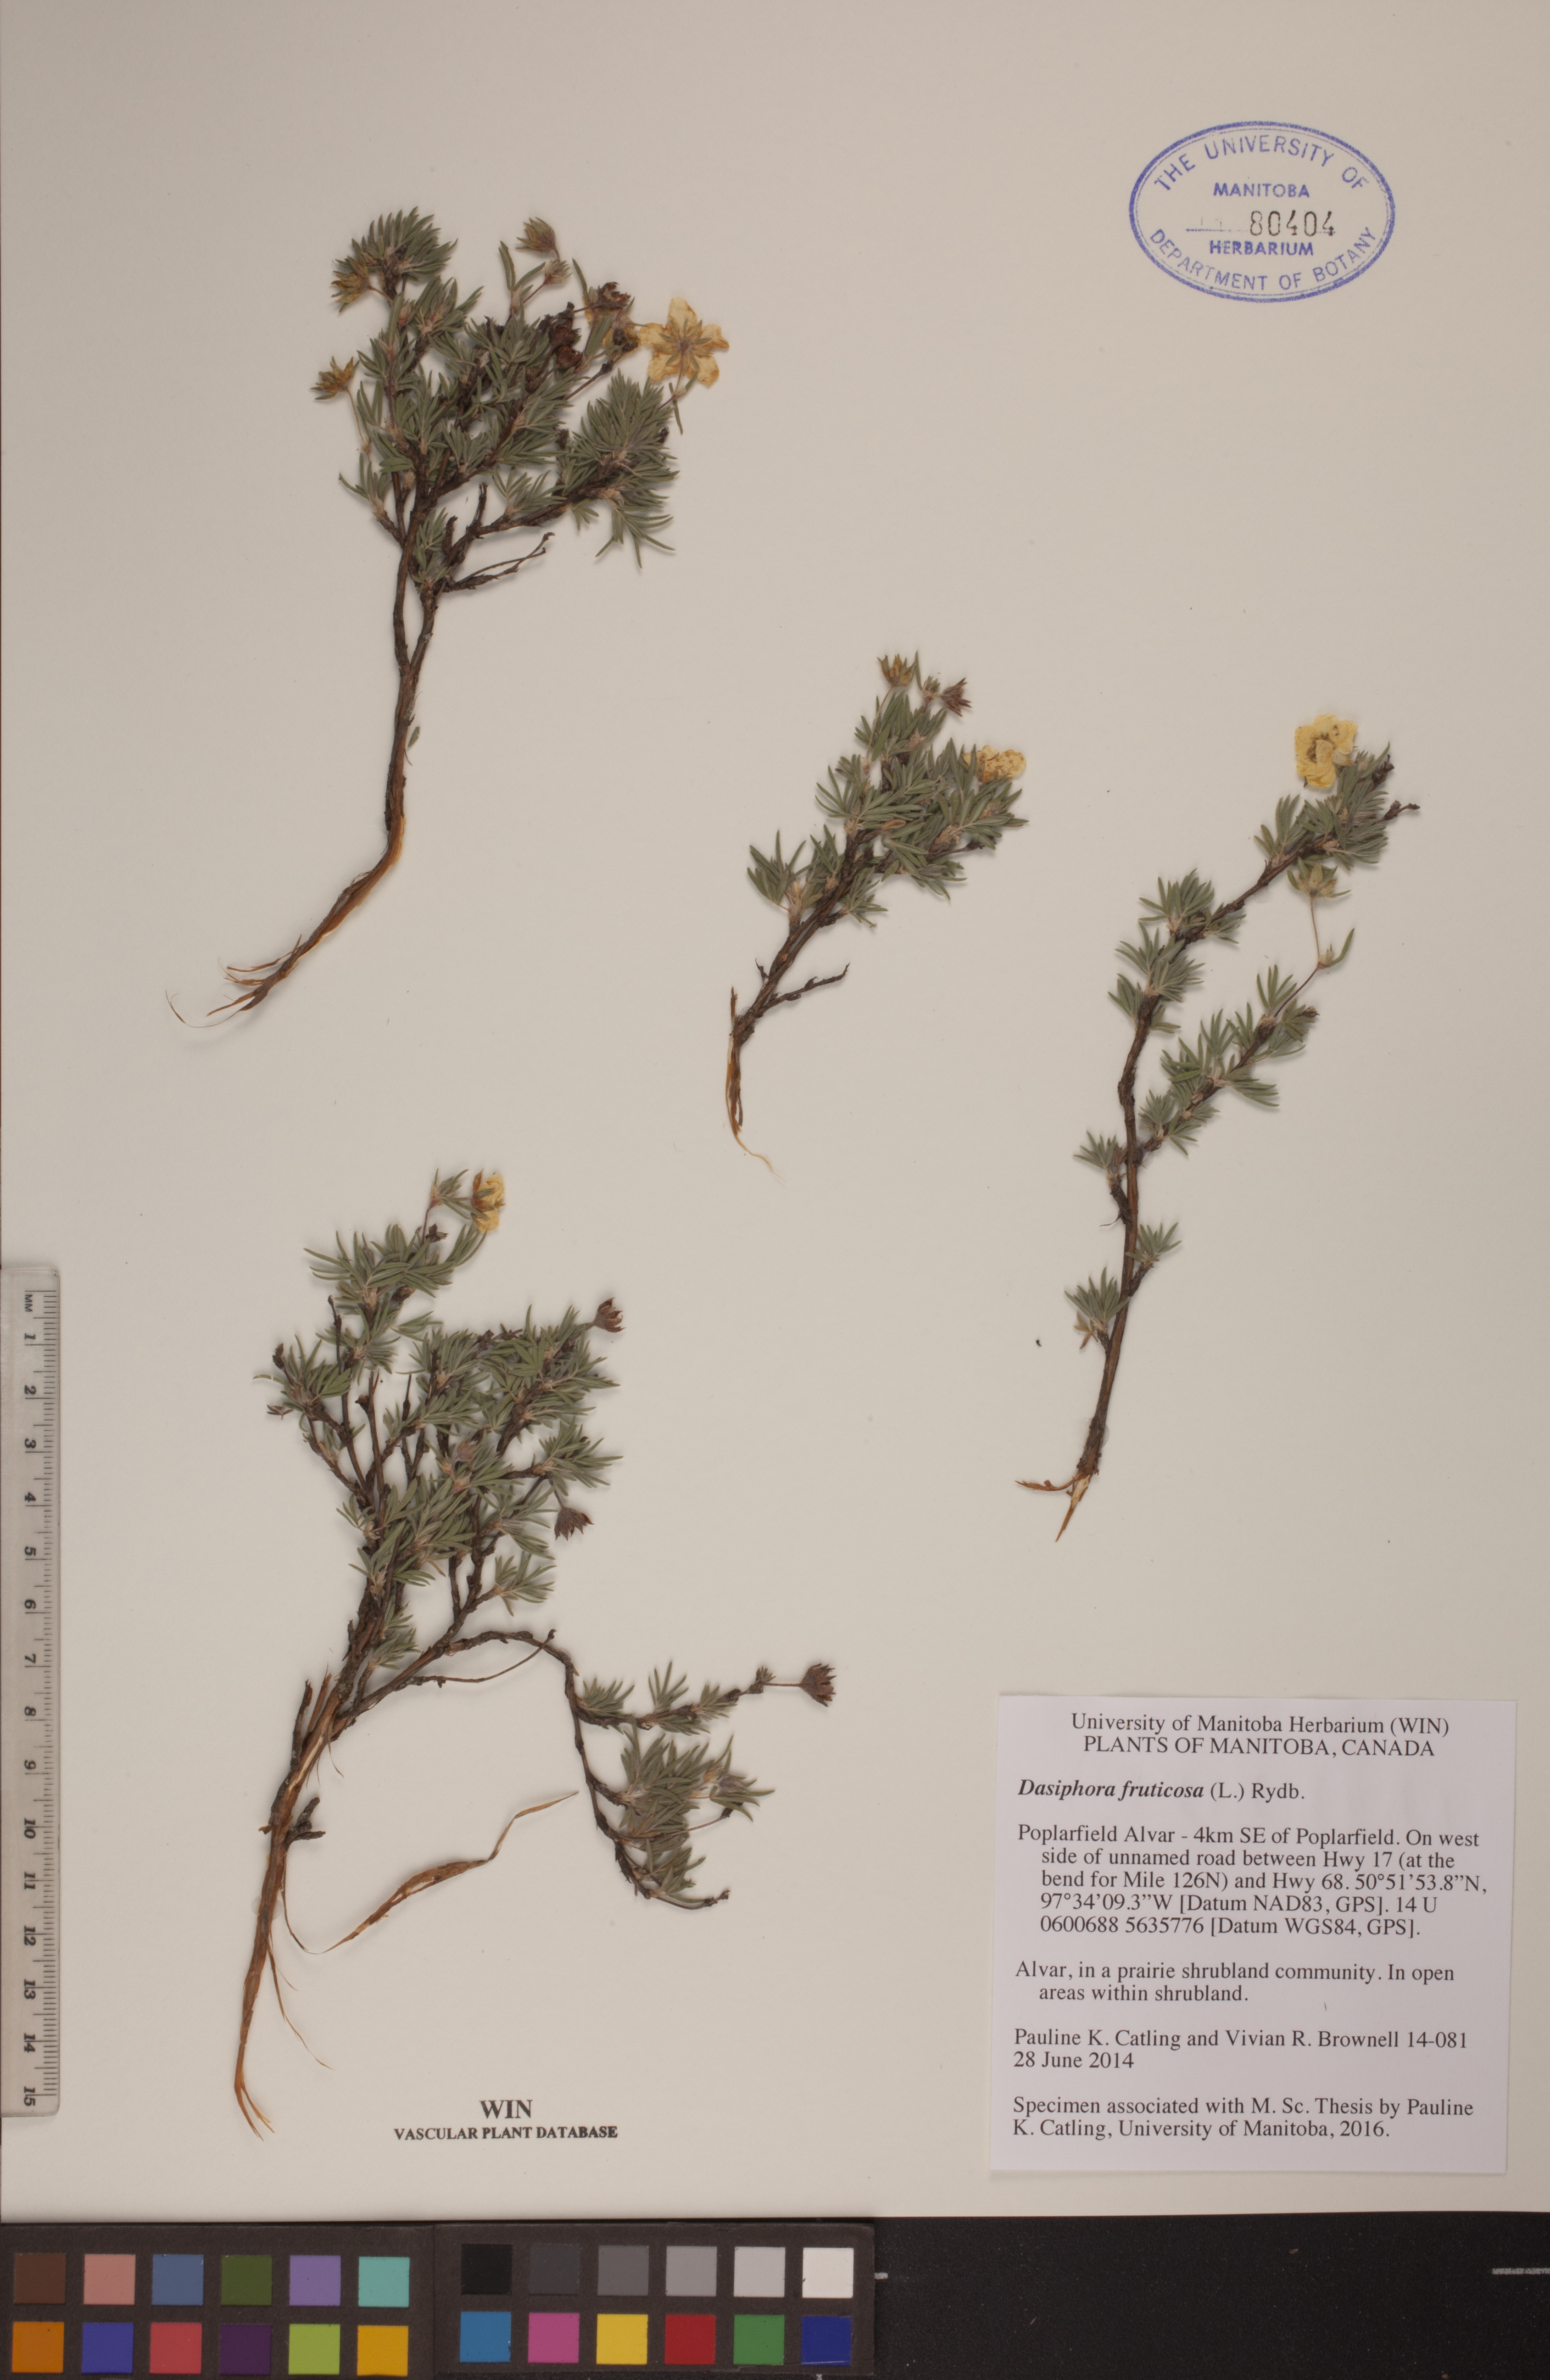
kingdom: Plantae
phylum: Tracheophyta
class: Magnoliopsida
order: Rosales
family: Rosaceae
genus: Dasiphora
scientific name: Dasiphora fruticosa
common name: Shrubby cinquefoil
